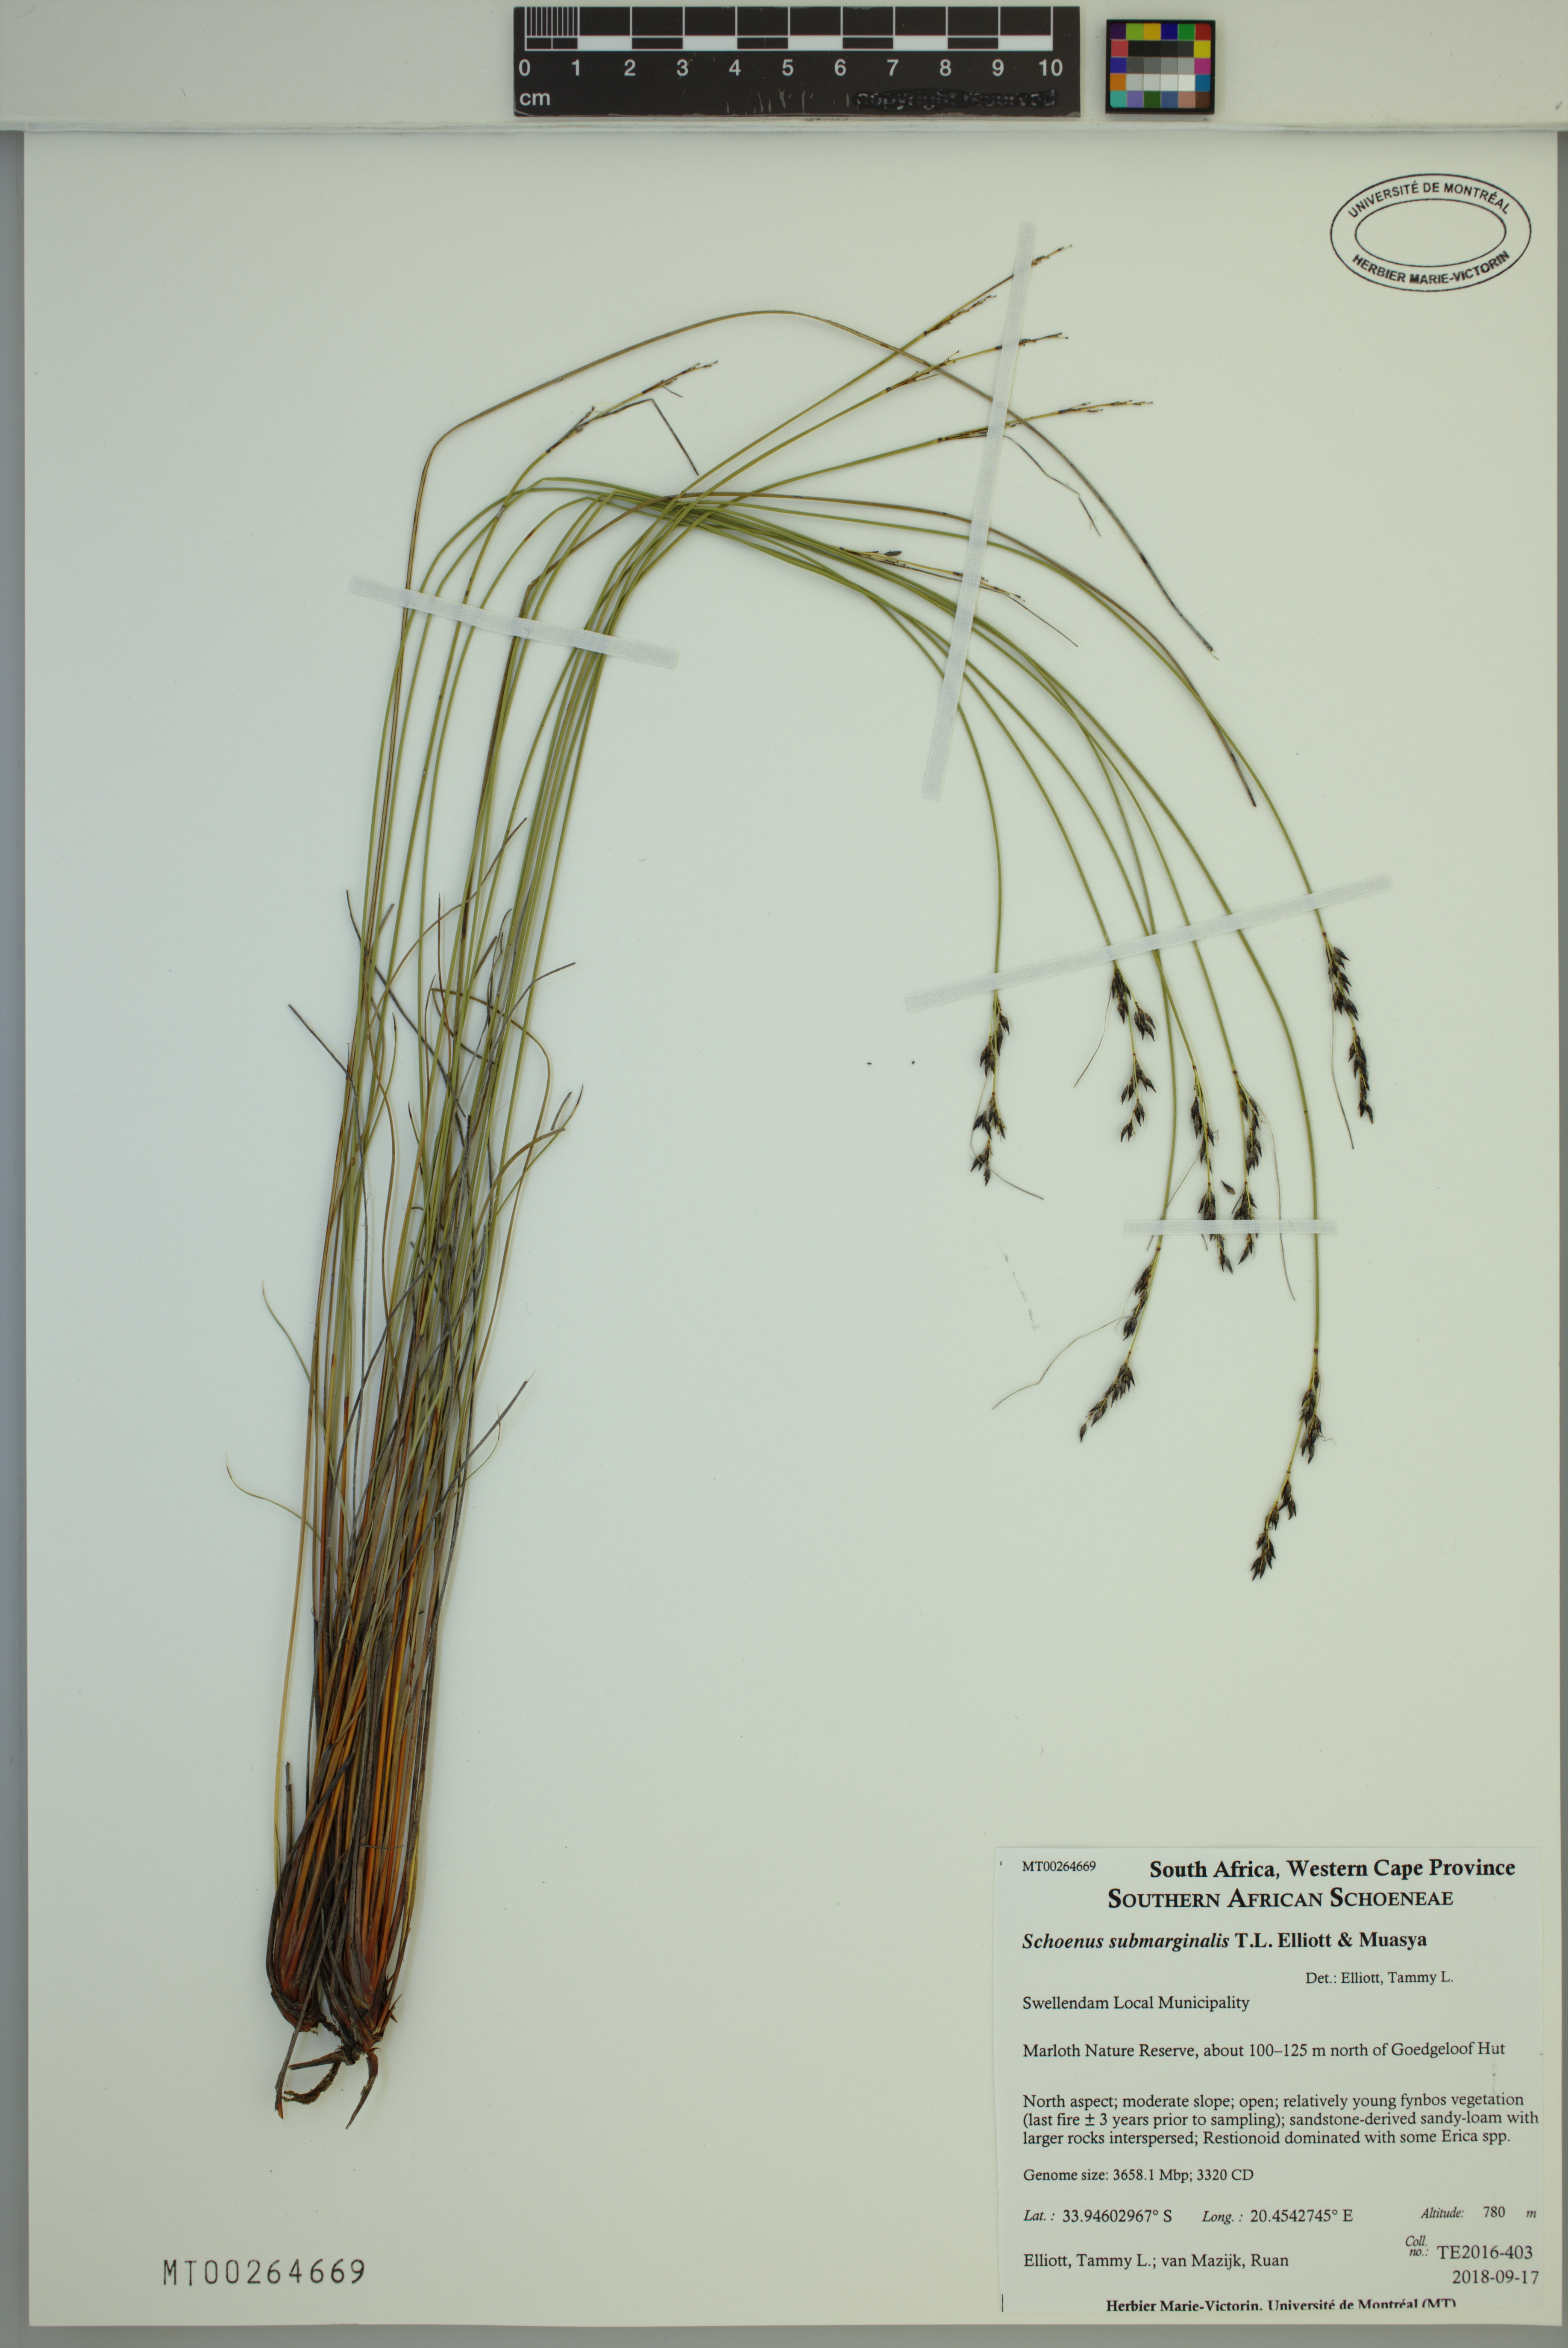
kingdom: Plantae
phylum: Tracheophyta
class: Liliopsida
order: Poales
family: Cyperaceae
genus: Schoenus
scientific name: Schoenus submarginalis
